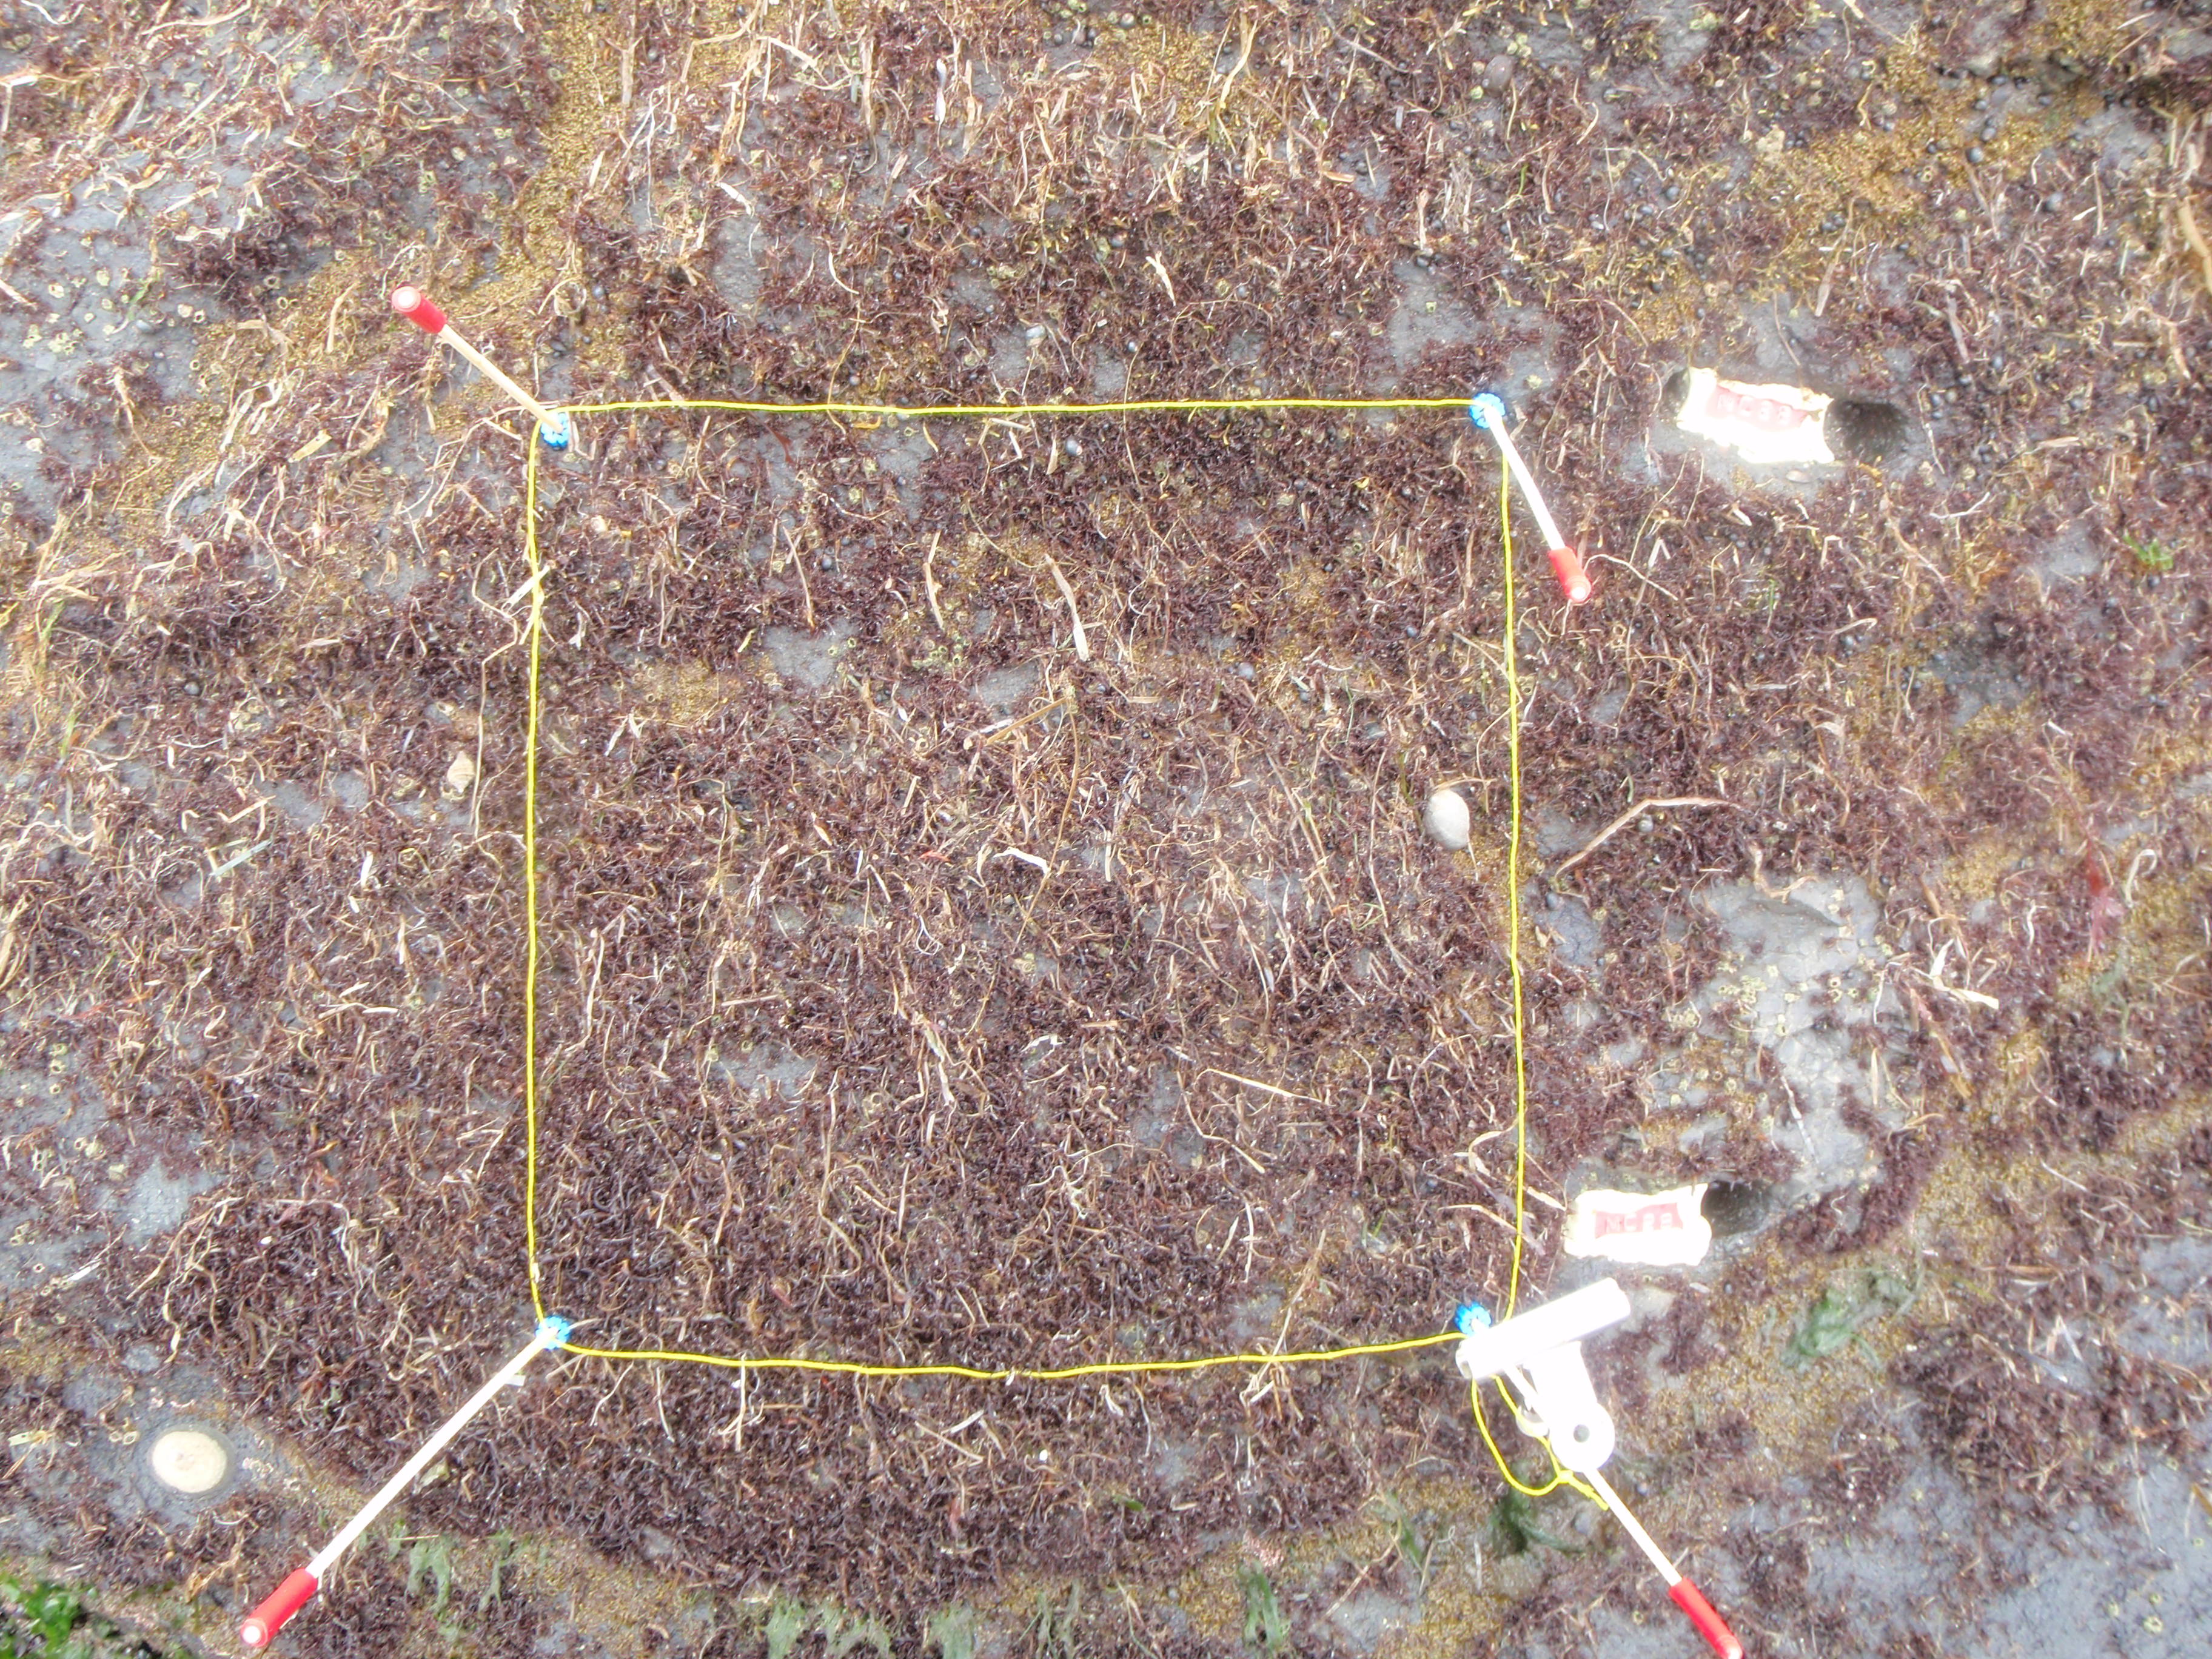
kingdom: Plantae
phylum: Rhodophyta
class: Florideophyceae
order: Gigartinales
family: Endocladiaceae
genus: Gloiopeltis
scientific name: Gloiopeltis furcata
